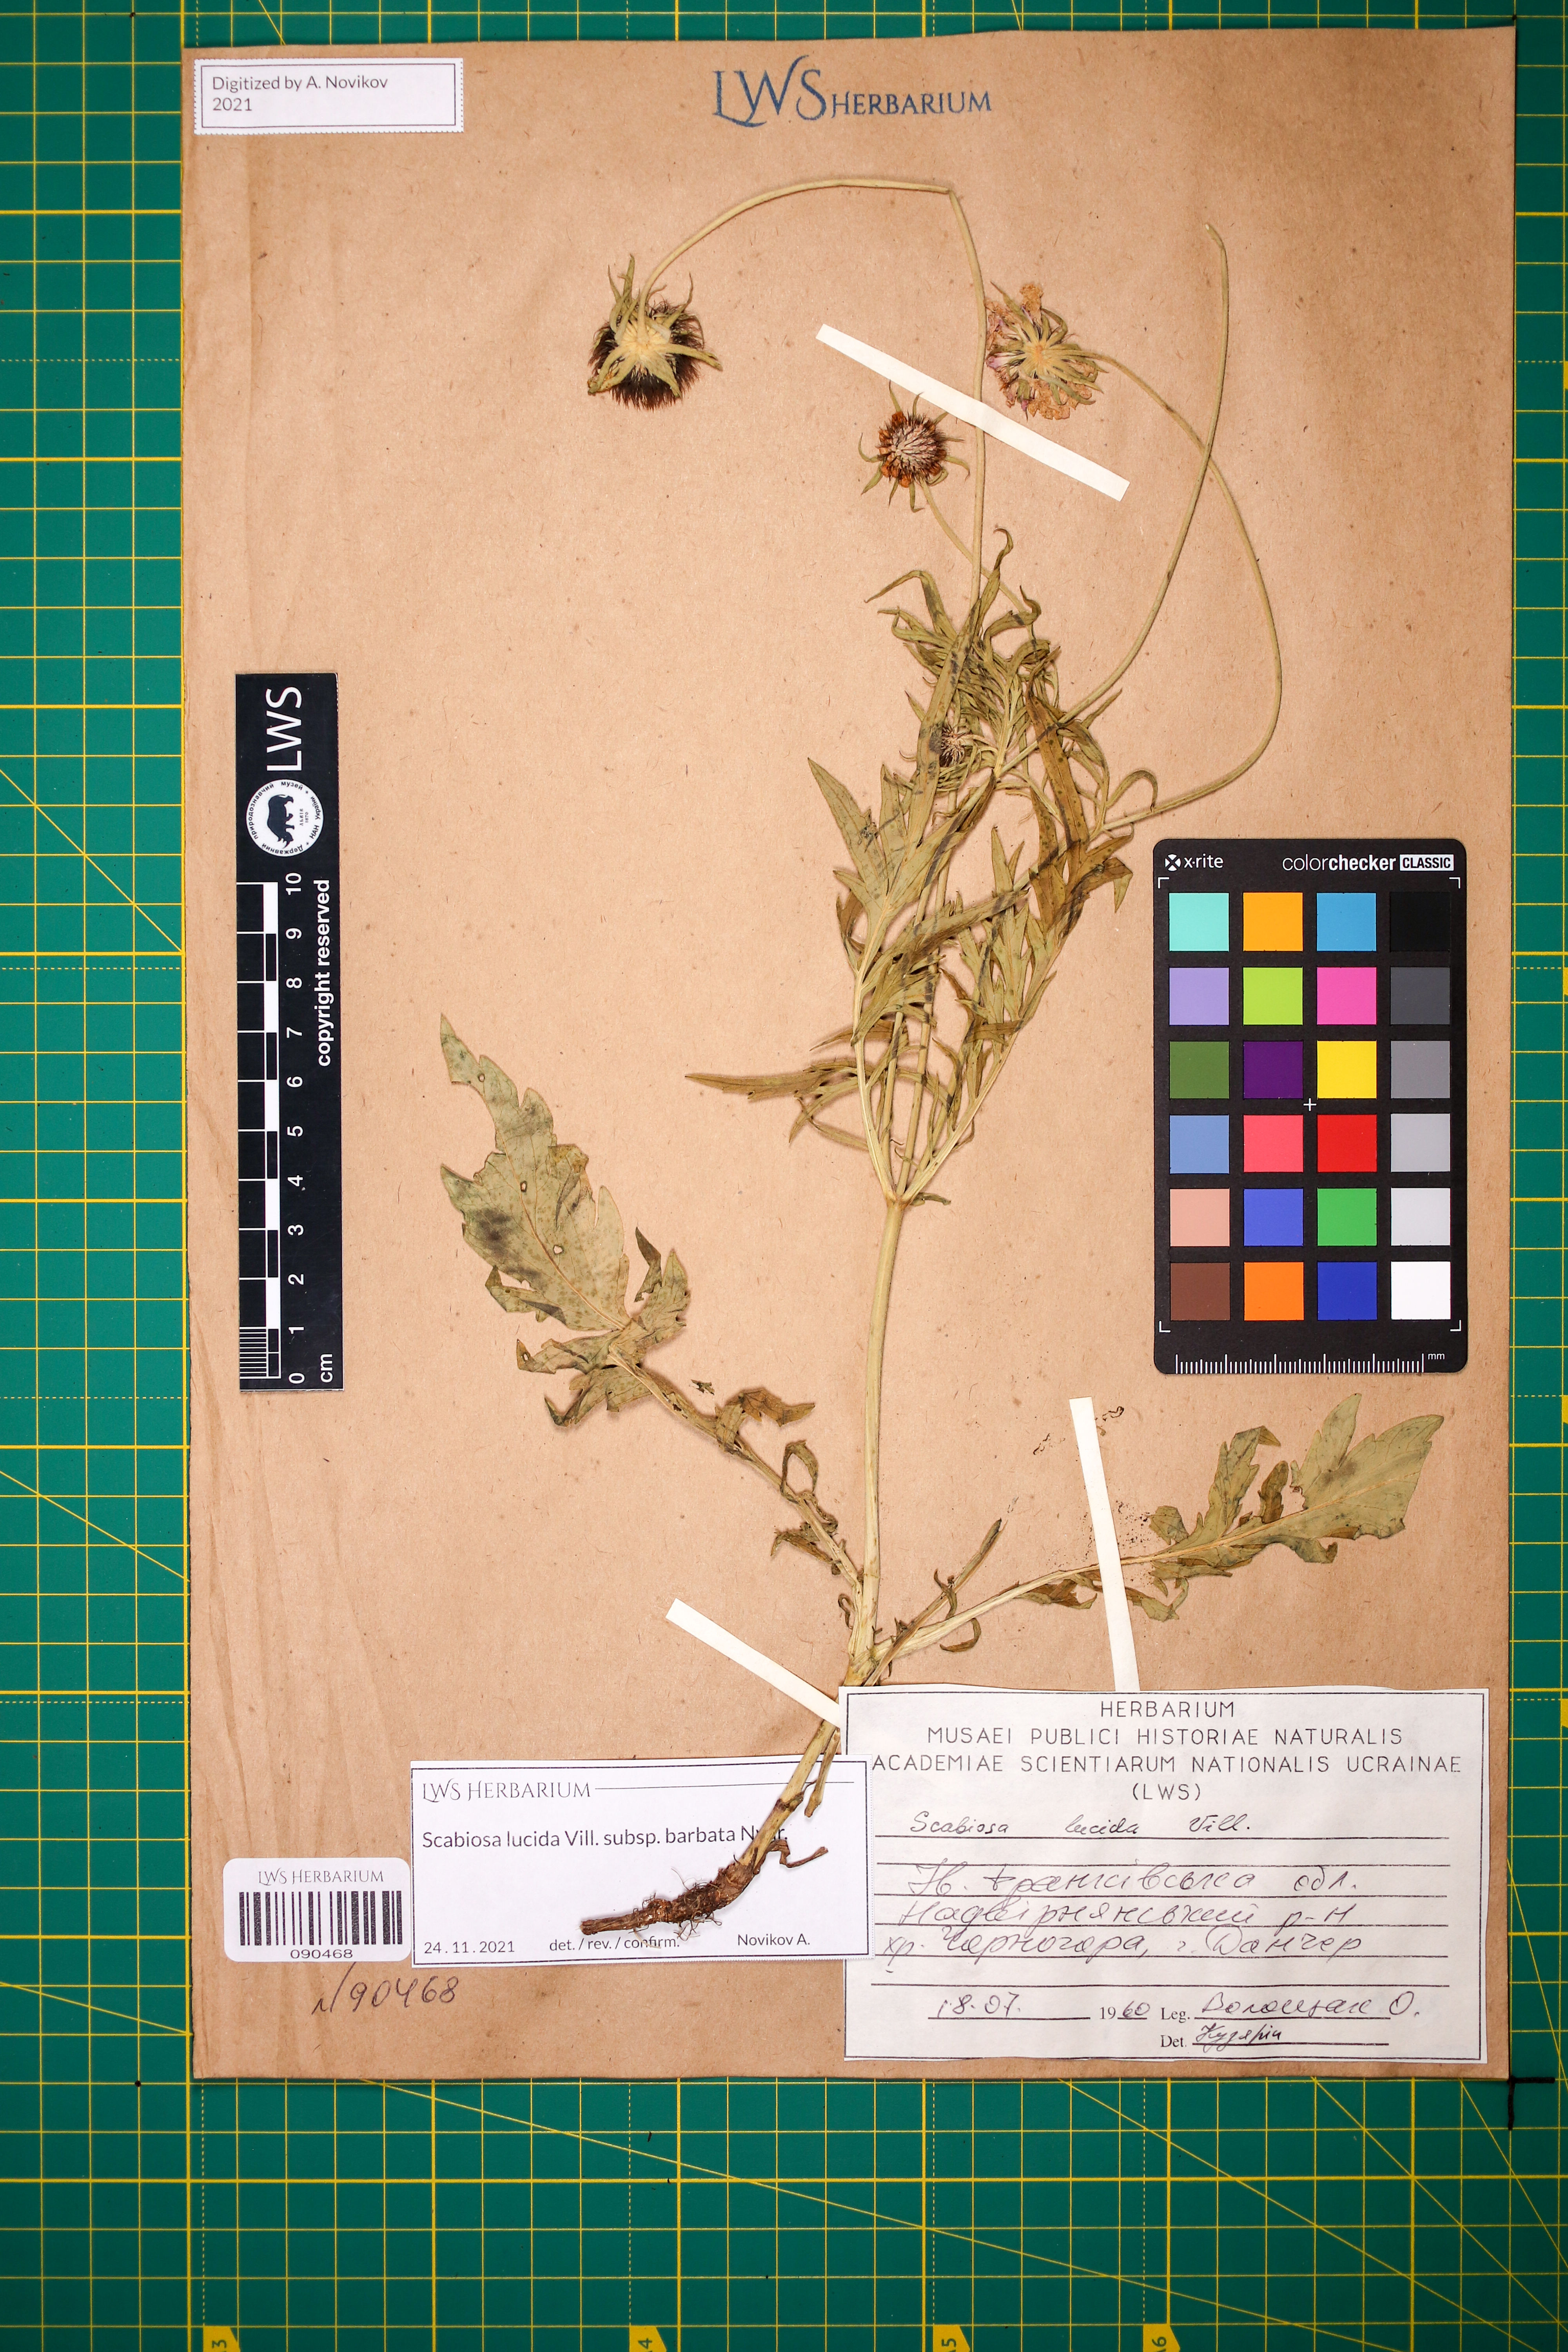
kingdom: Plantae
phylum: Tracheophyta
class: Magnoliopsida
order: Dipsacales
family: Caprifoliaceae
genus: Scabiosa
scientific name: Scabiosa lucida
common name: Shining scabious
